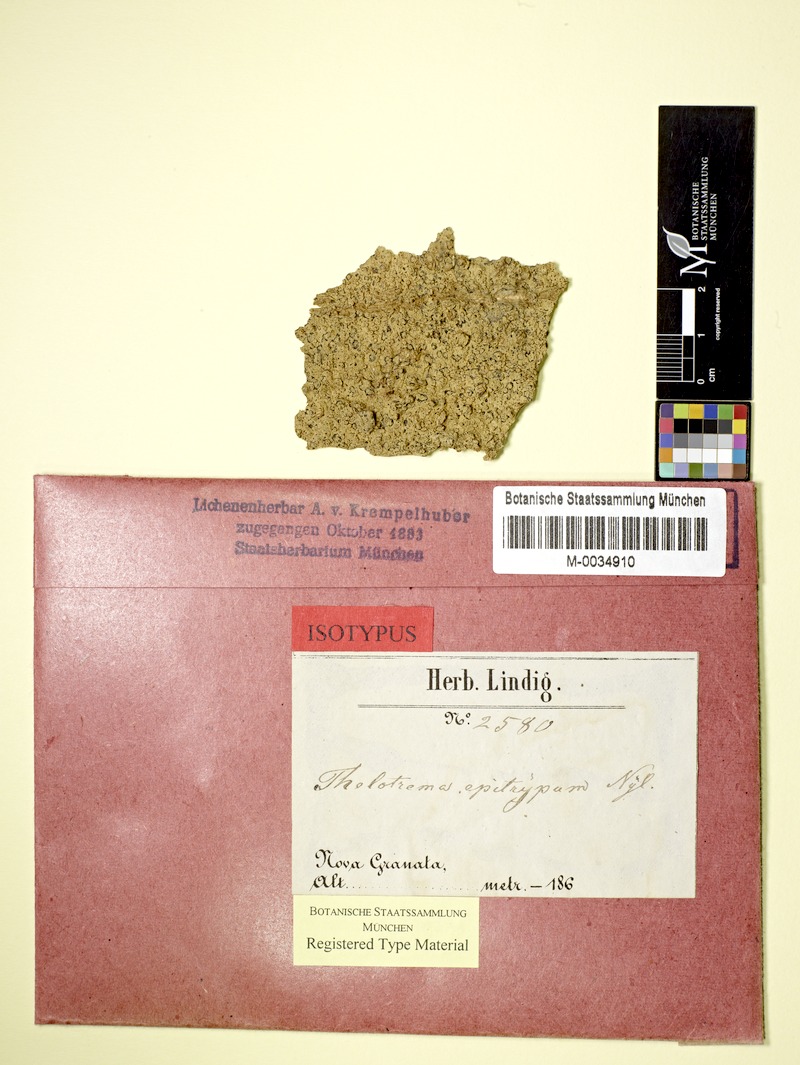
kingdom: Fungi
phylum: Ascomycota
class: Lecanoromycetes
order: Ostropales
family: Graphidaceae
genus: Ocellularia
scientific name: Ocellularia bahiana
